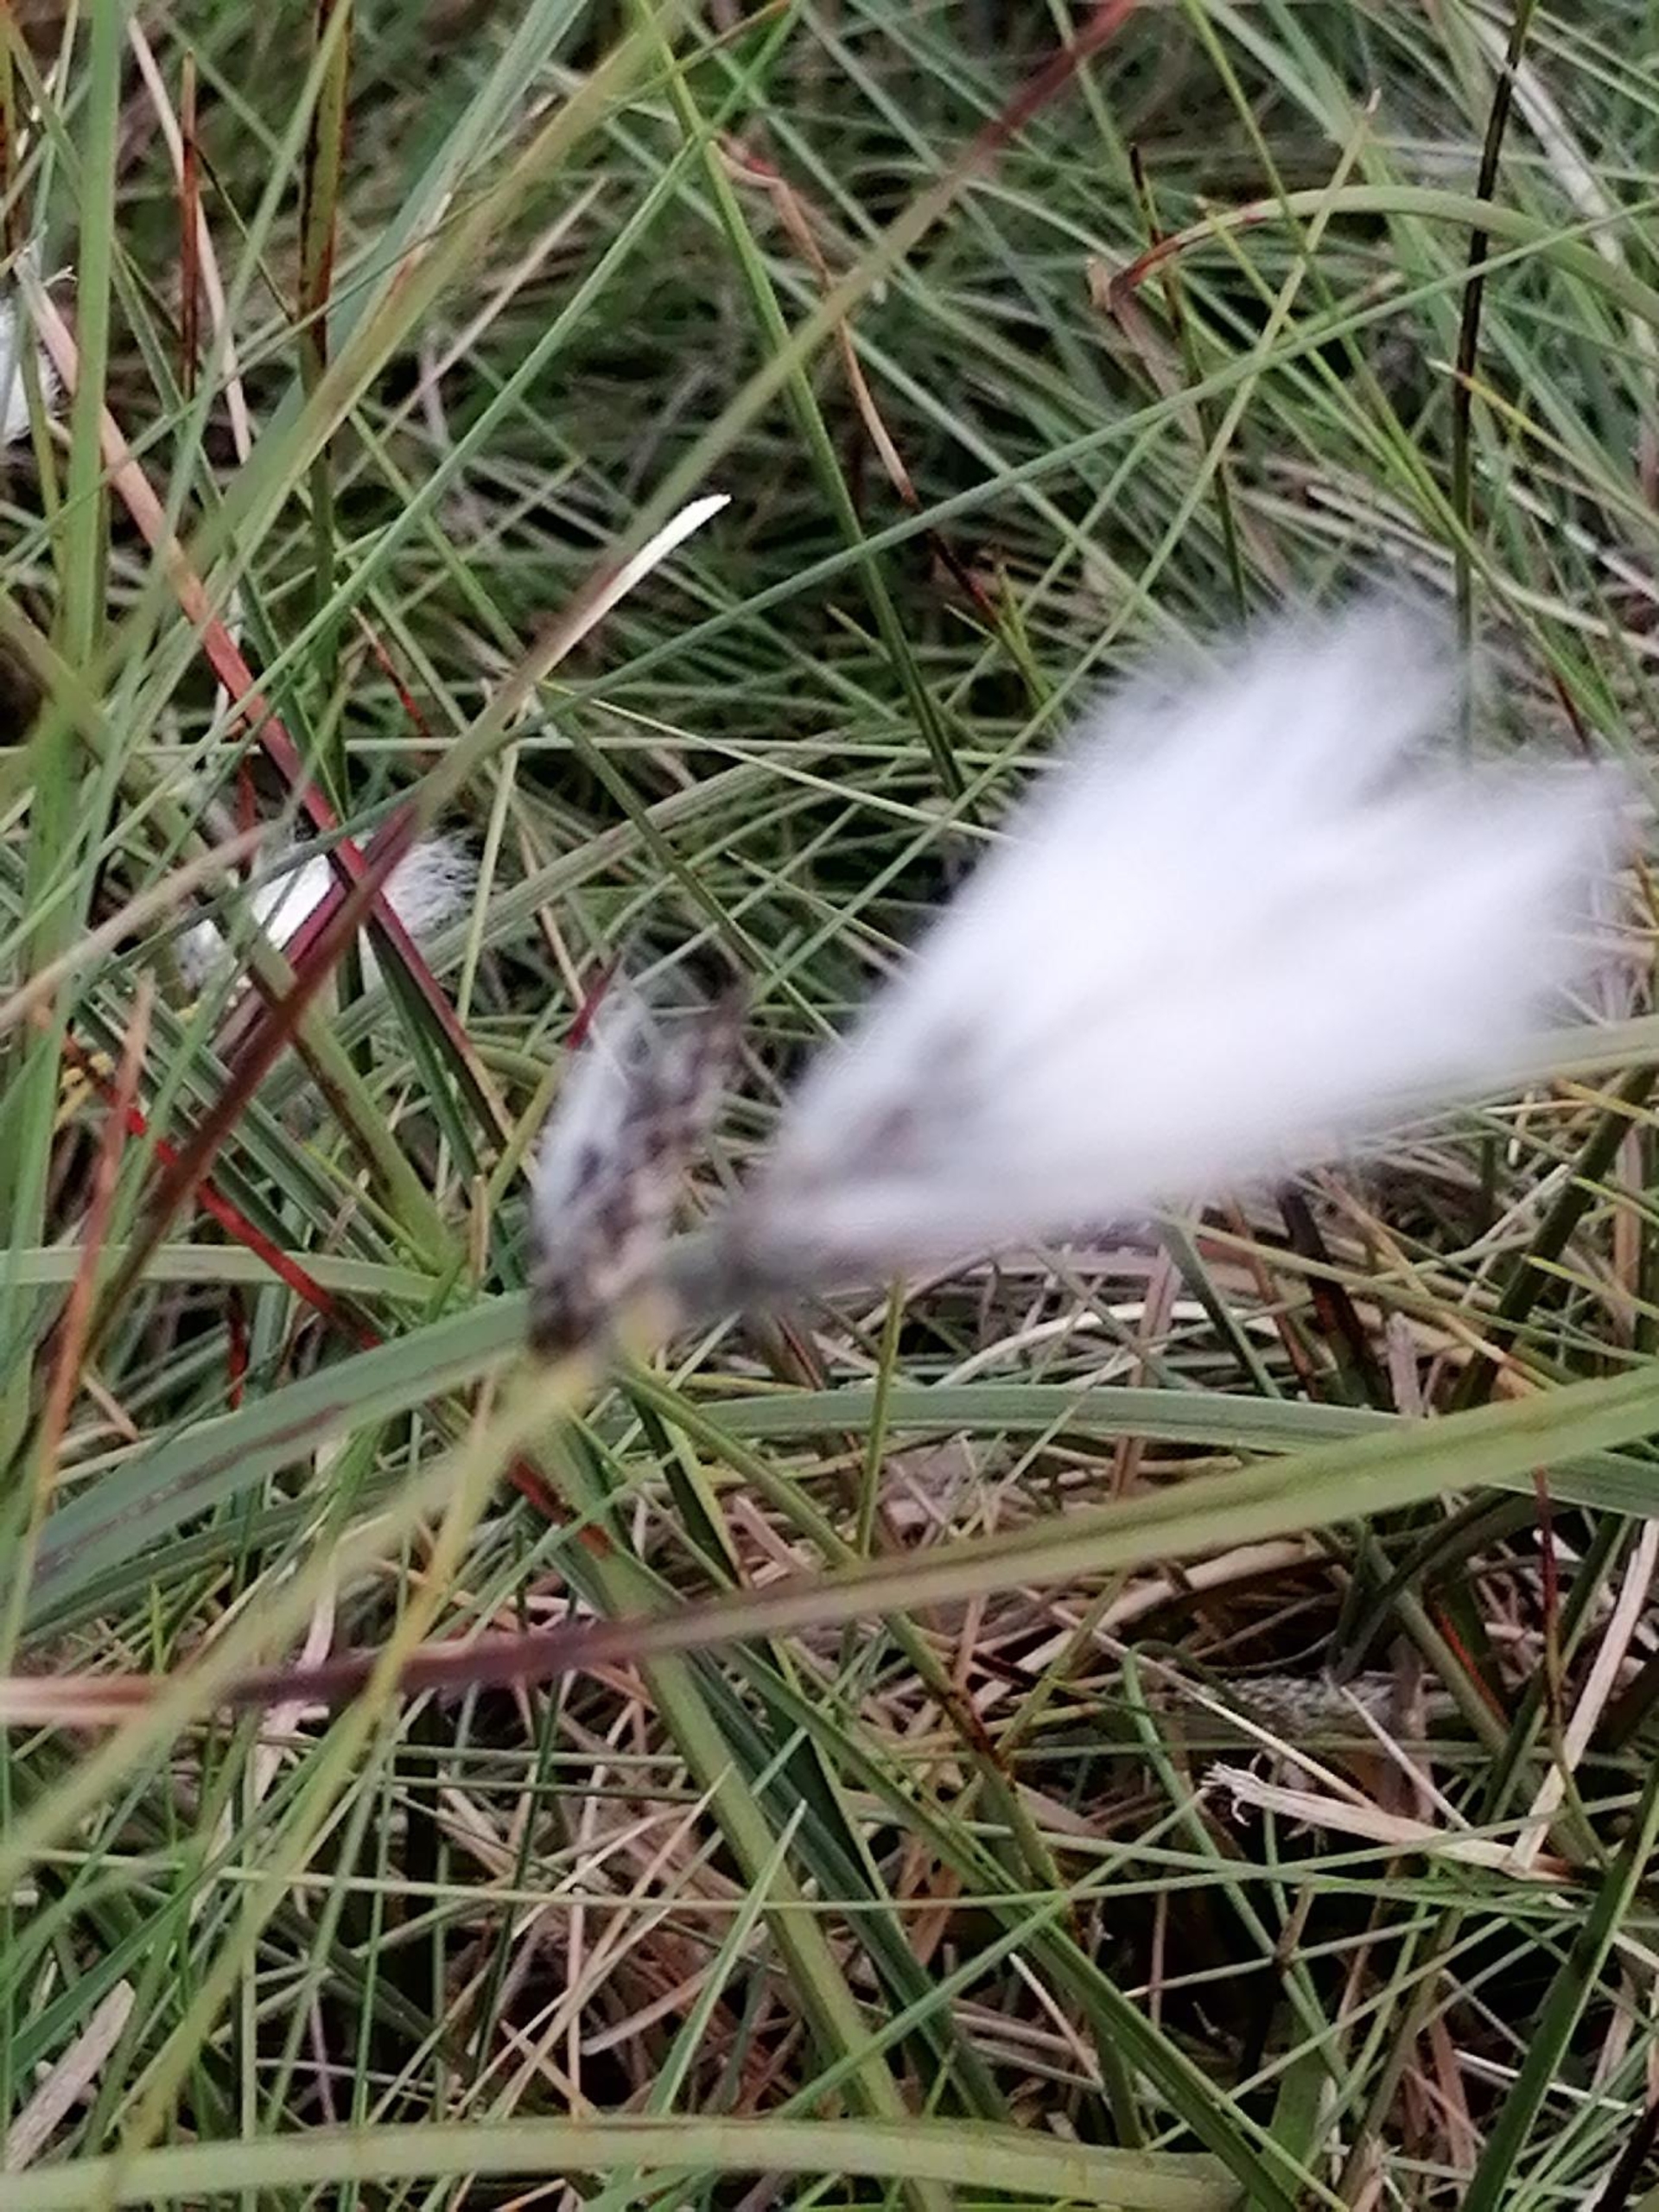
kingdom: Plantae
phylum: Tracheophyta
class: Liliopsida
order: Poales
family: Cyperaceae
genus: Eriophorum
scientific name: Eriophorum vaginatum
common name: Tue-kæruld
